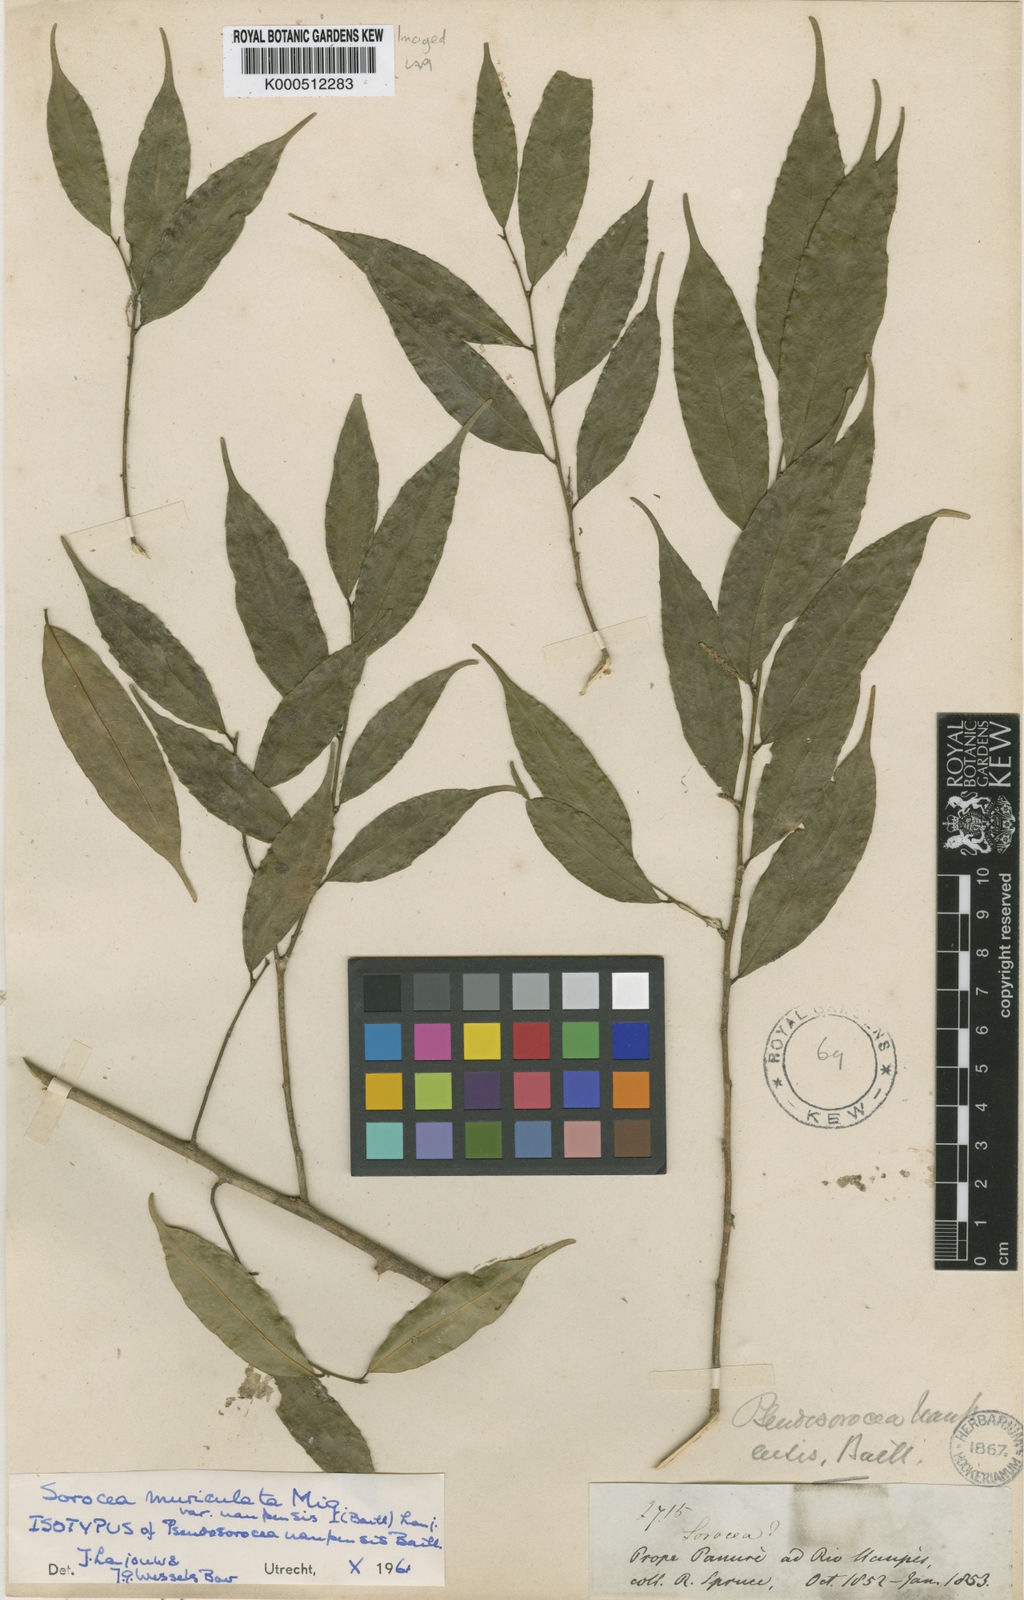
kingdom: Plantae
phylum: Tracheophyta
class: Magnoliopsida
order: Rosales
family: Moraceae
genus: Sorocea
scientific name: Sorocea muriculata
